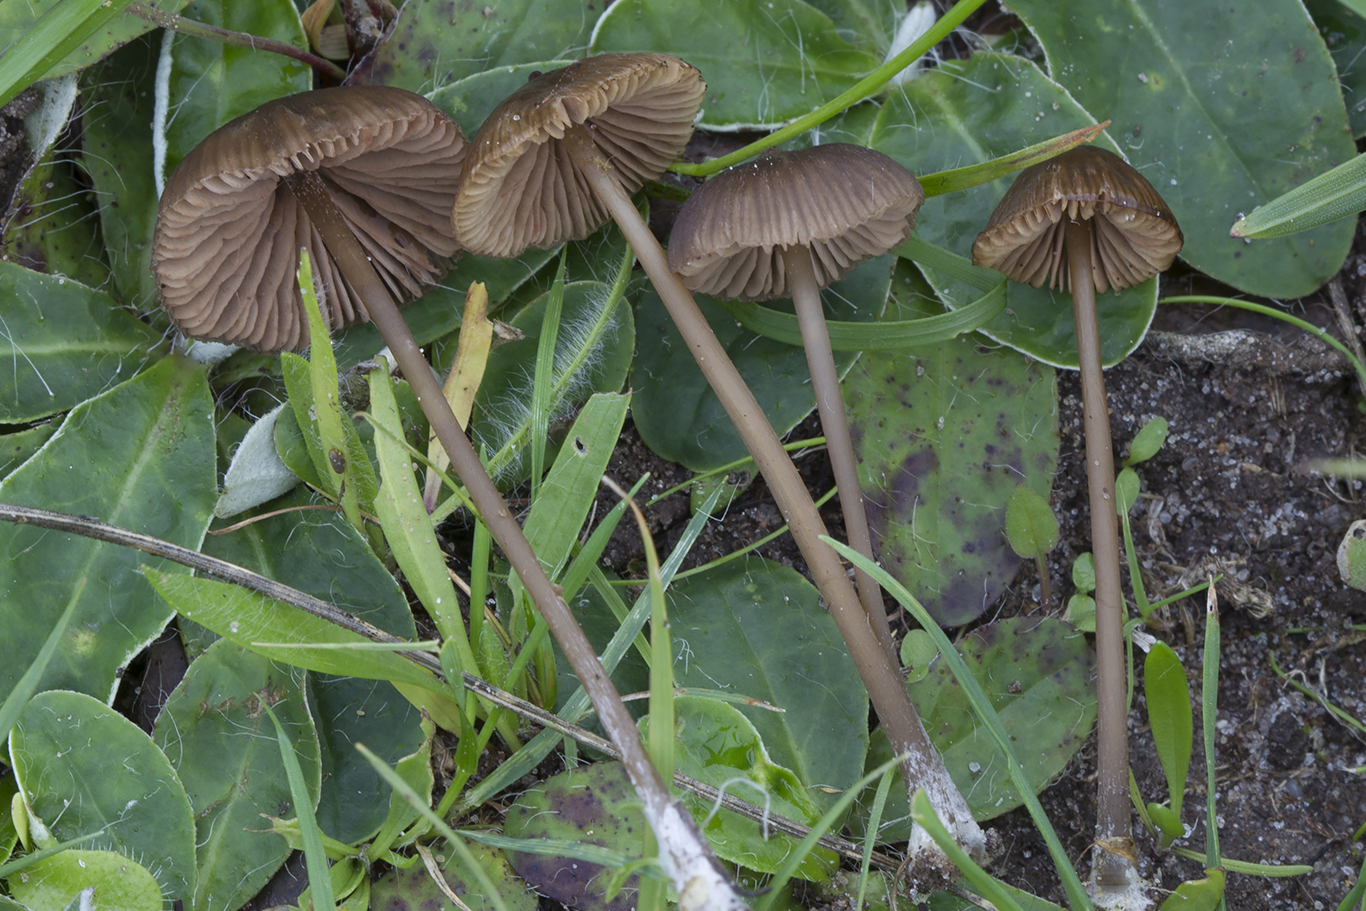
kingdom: Fungi
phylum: Basidiomycota
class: Agaricomycetes
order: Agaricales
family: Entolomataceae
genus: Entoloma
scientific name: Entoloma clandestinum
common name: tykbladet rødblad
